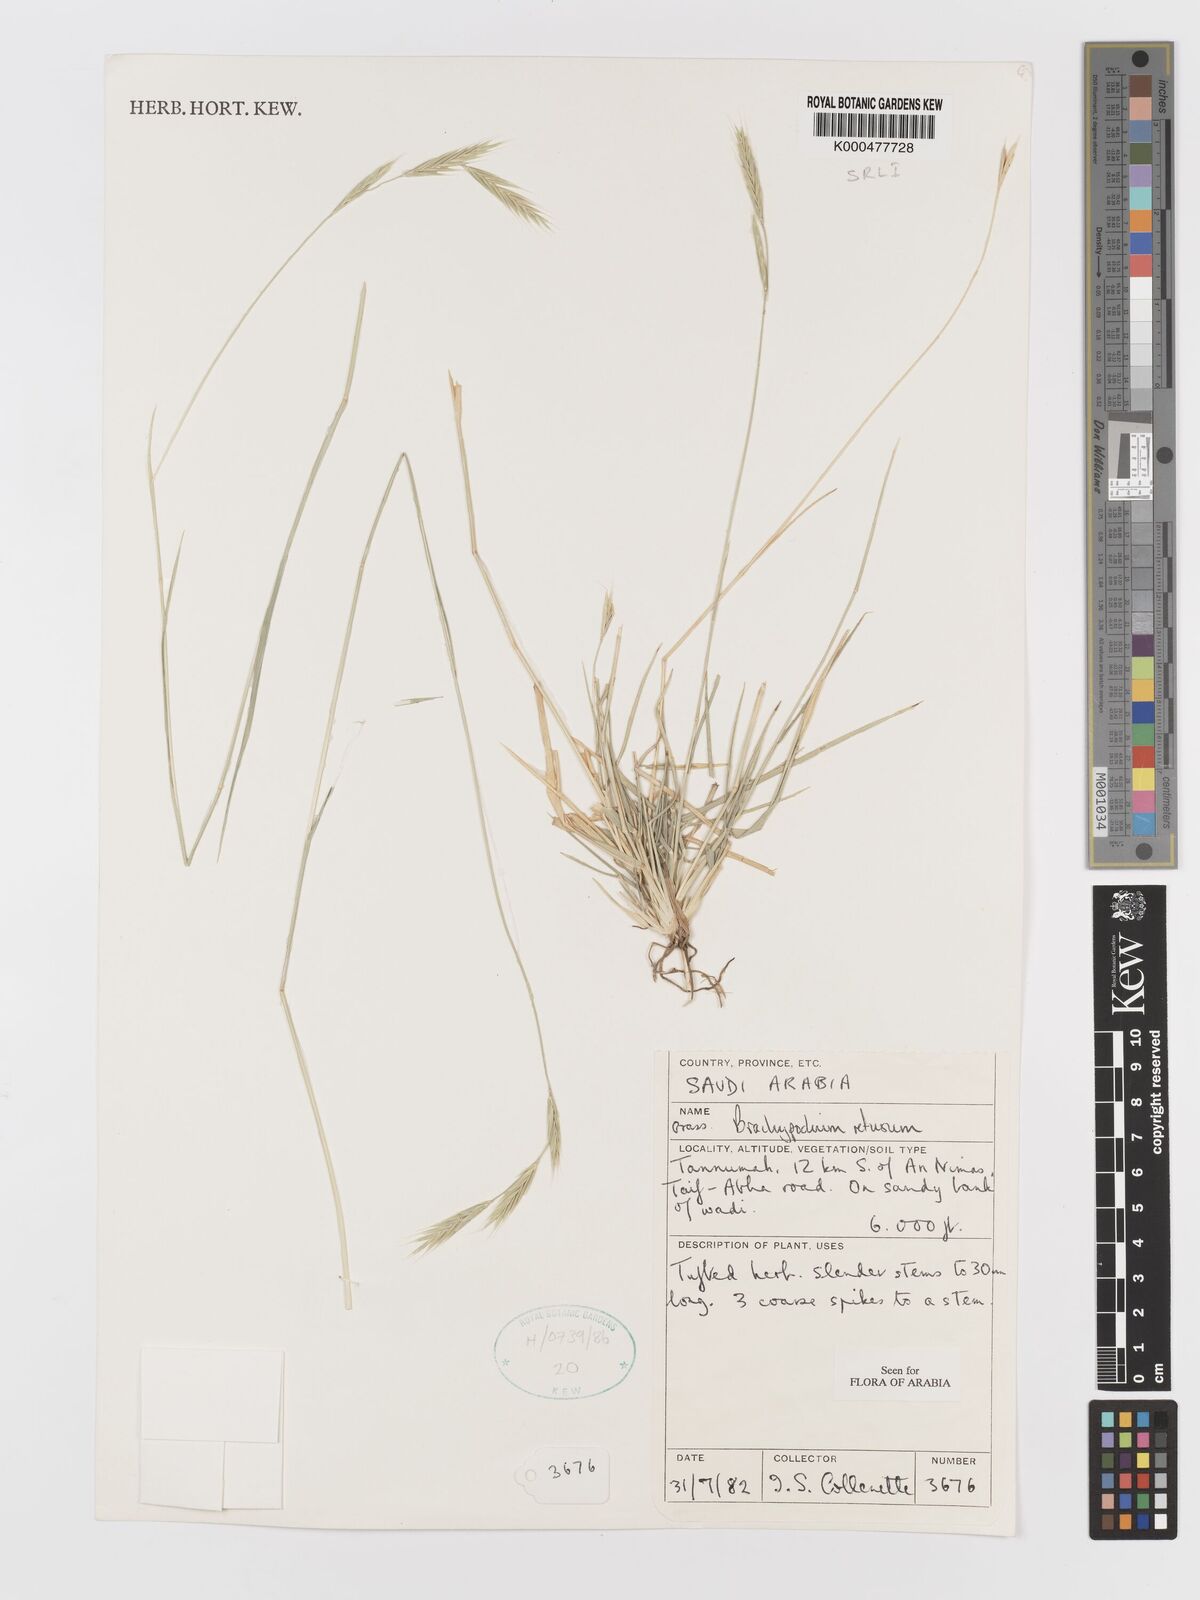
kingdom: Plantae
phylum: Tracheophyta
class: Liliopsida
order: Poales
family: Poaceae
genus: Brachypodium
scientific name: Brachypodium retusum
